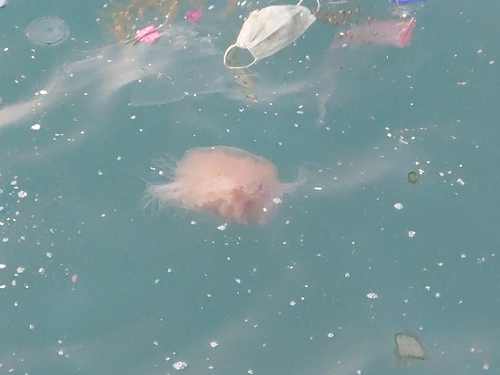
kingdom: Animalia
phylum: Cnidaria
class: Scyphozoa
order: Semaeostomeae
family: Cyaneidae
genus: Cyanea
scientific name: Cyanea nozakii
